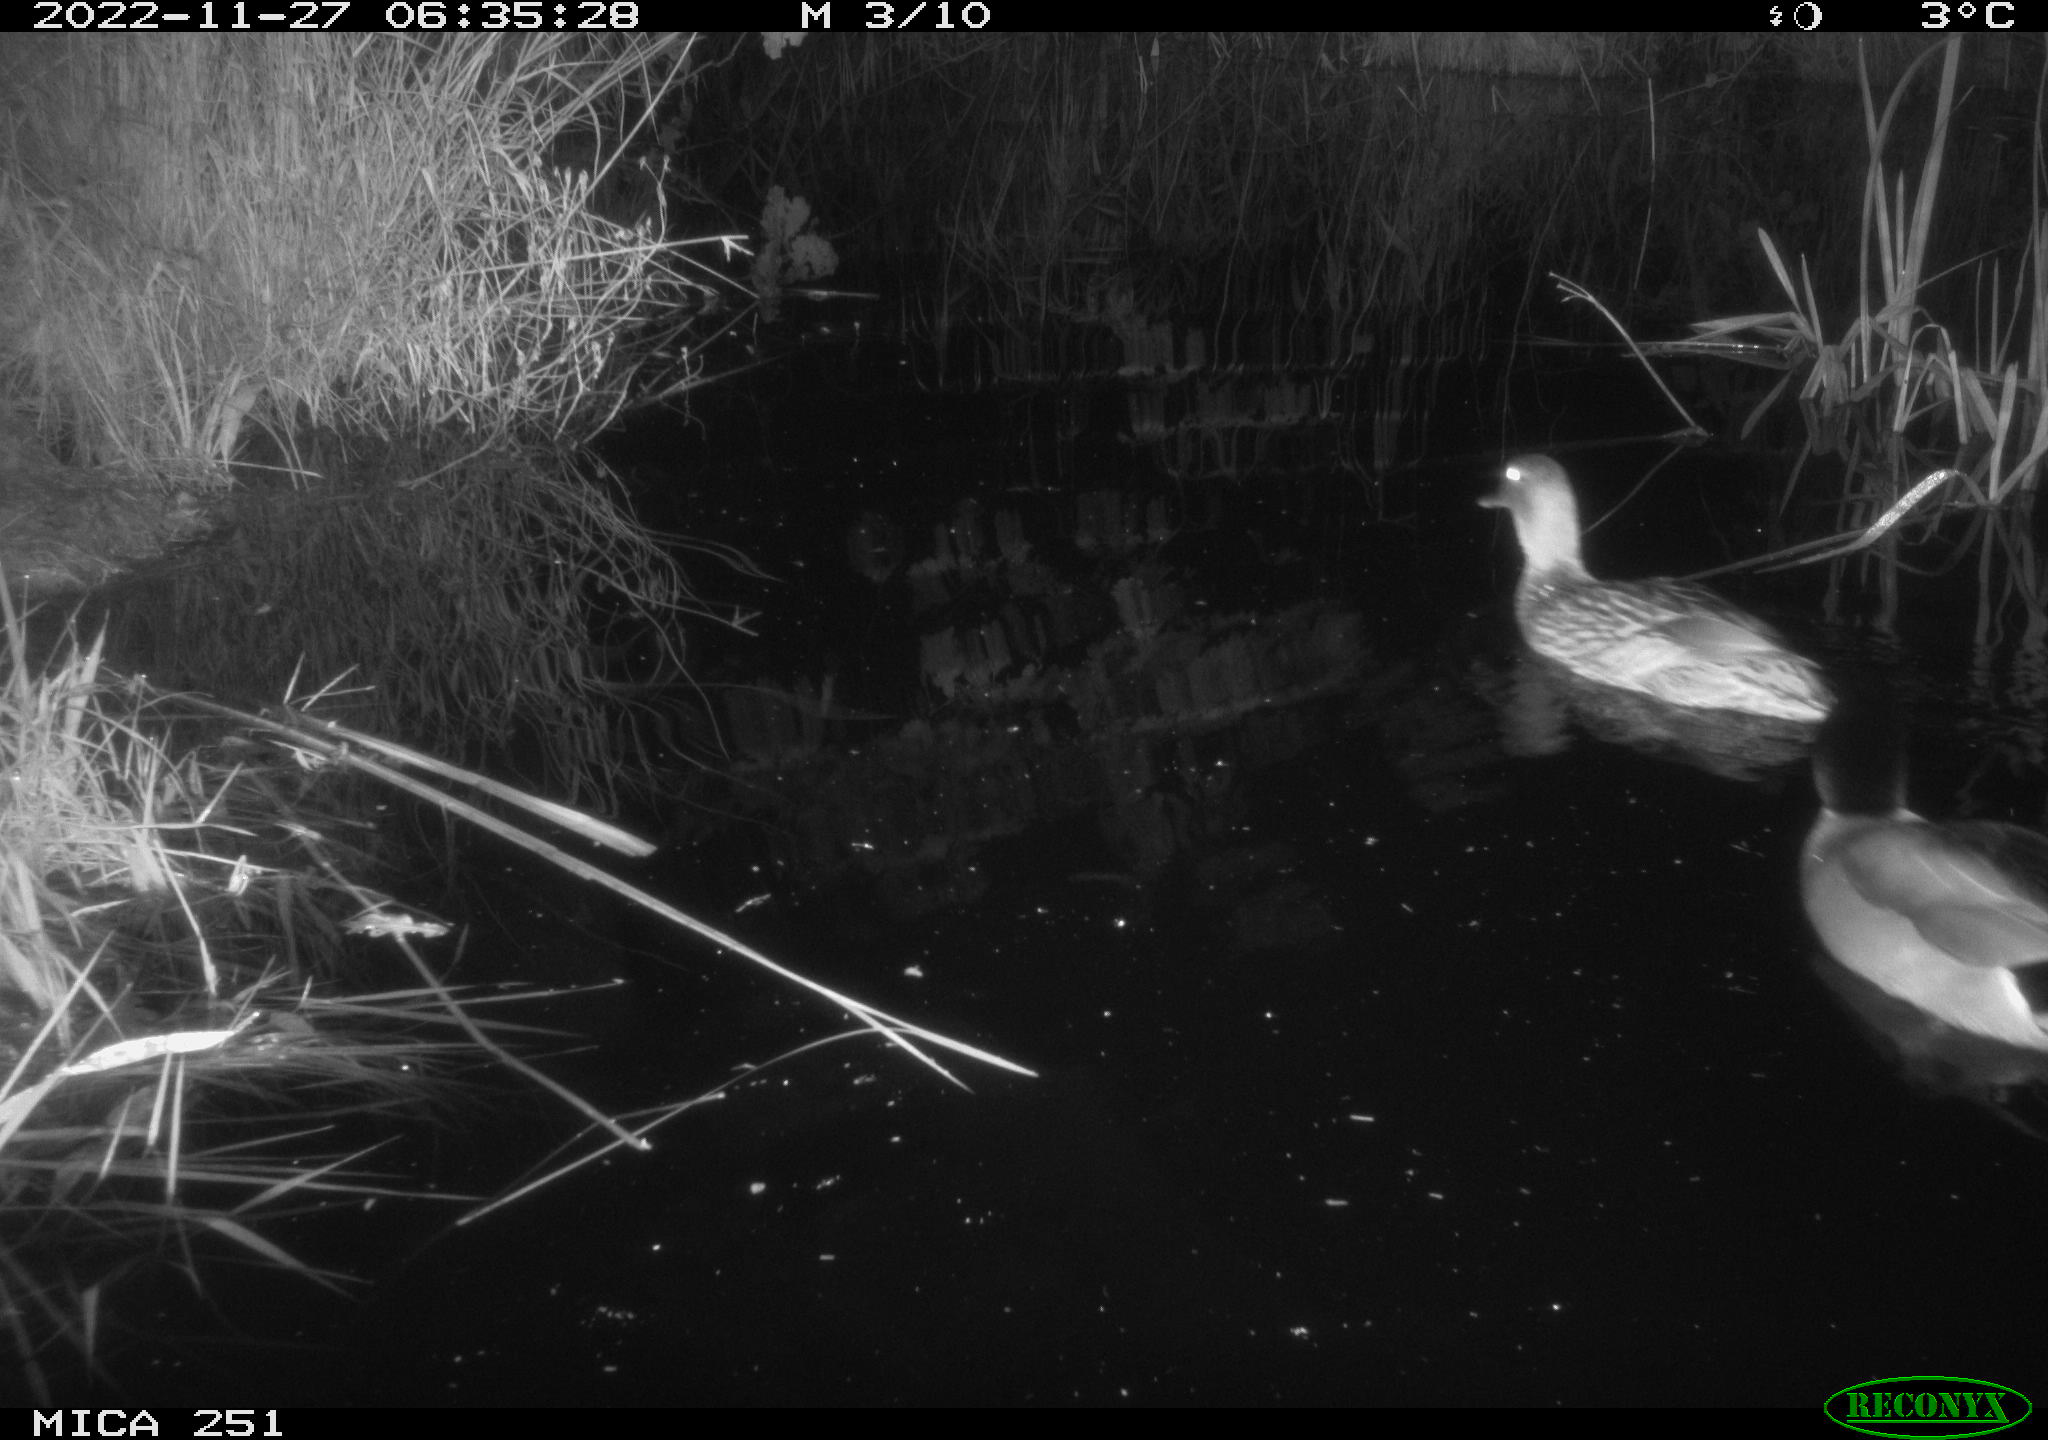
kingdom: Animalia
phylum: Chordata
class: Aves
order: Anseriformes
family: Anatidae
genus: Anas
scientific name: Anas
